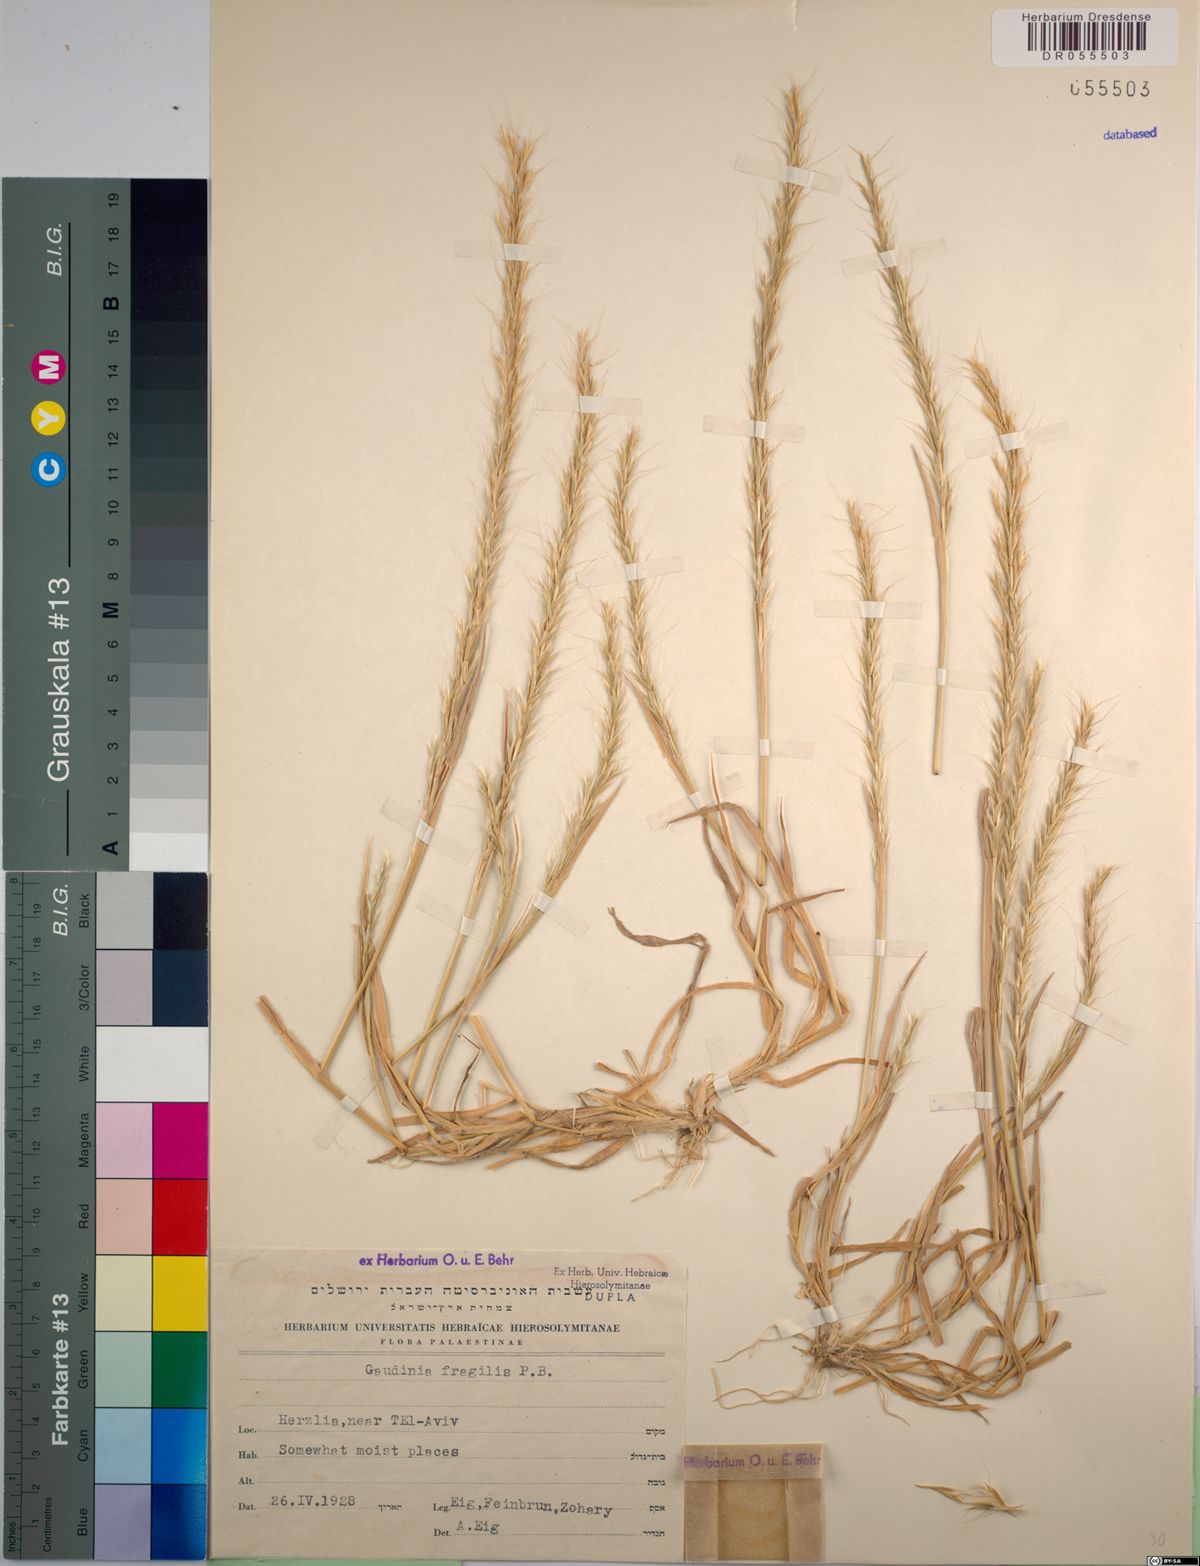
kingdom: Plantae
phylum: Tracheophyta
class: Liliopsida
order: Poales
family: Poaceae
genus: Gaudinia
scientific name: Gaudinia fragilis
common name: French oat-grass
